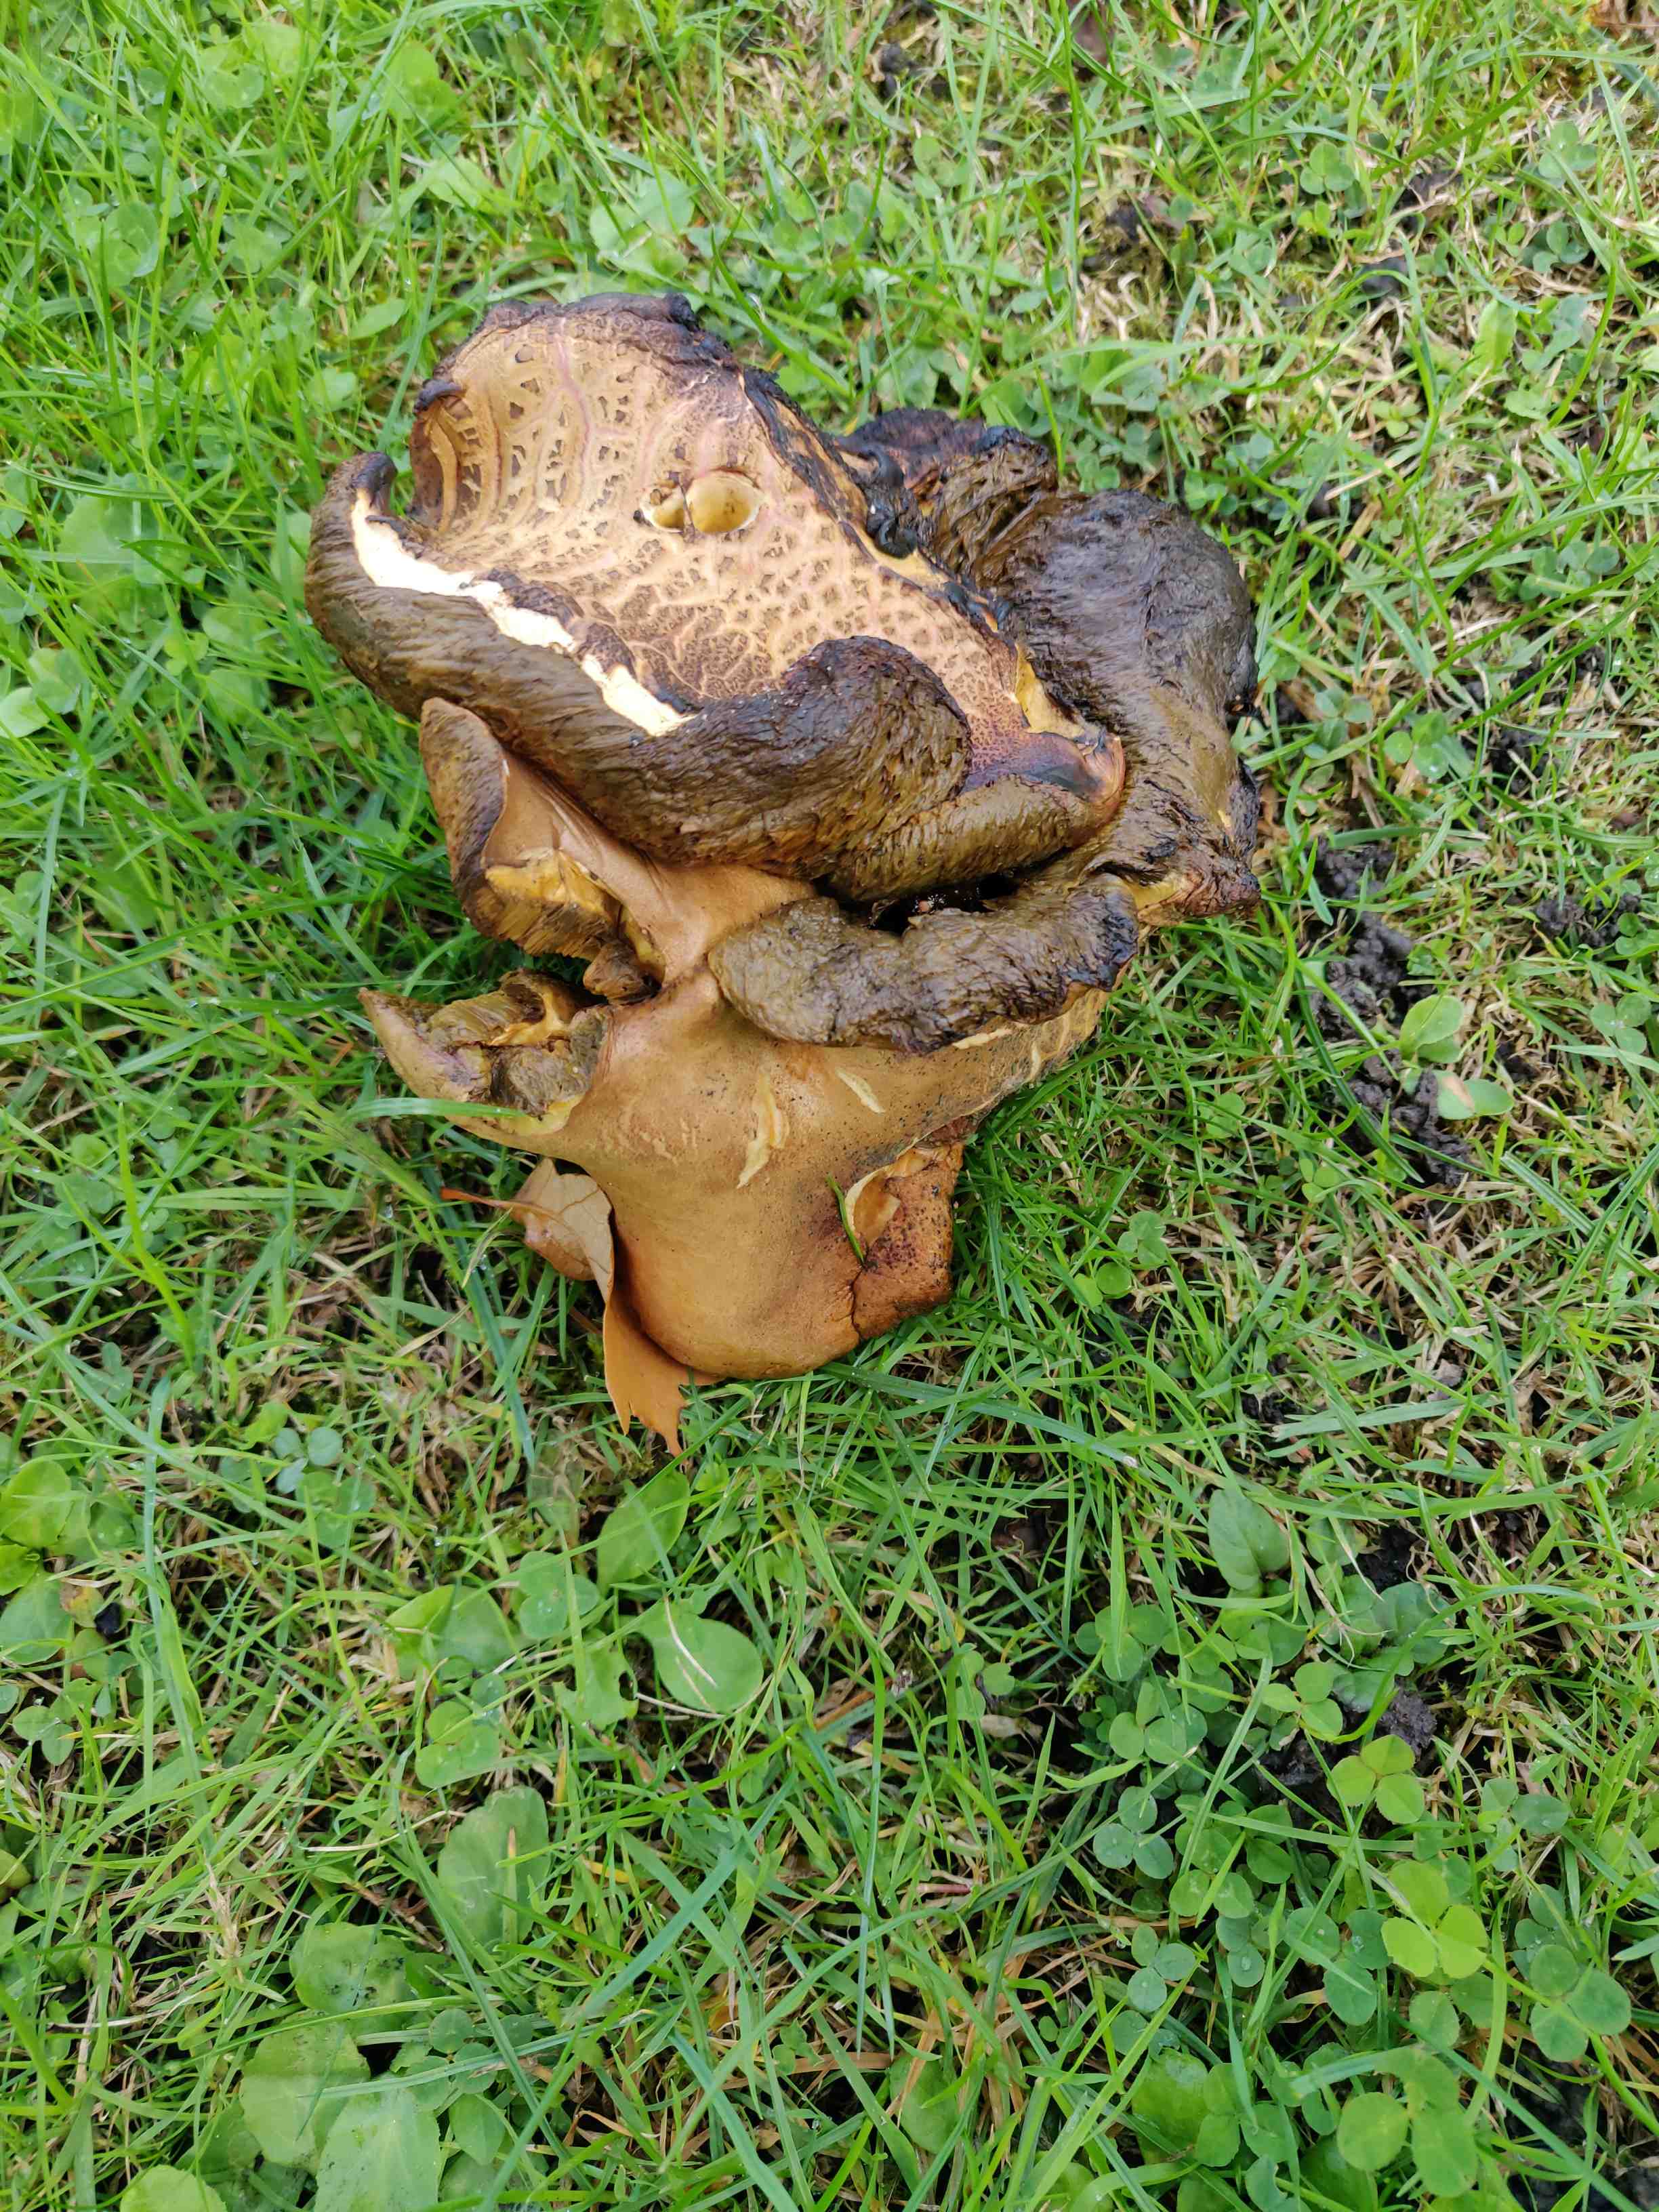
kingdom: Fungi
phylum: Basidiomycota
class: Agaricomycetes
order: Boletales
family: Boletaceae
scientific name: Boletaceae
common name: rørhatfamilien
